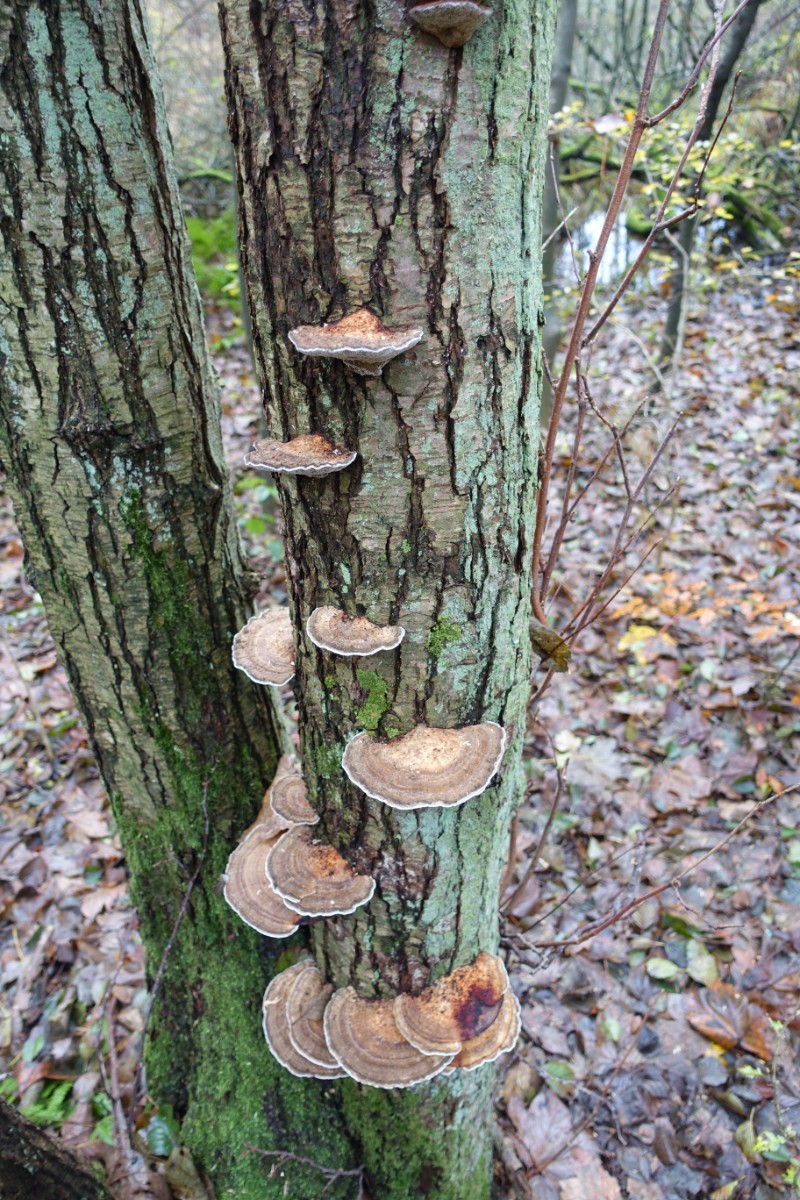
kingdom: Fungi
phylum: Basidiomycota
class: Agaricomycetes
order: Polyporales
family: Polyporaceae
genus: Daedaleopsis
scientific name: Daedaleopsis confragosa
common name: rødmende læderporesvamp
